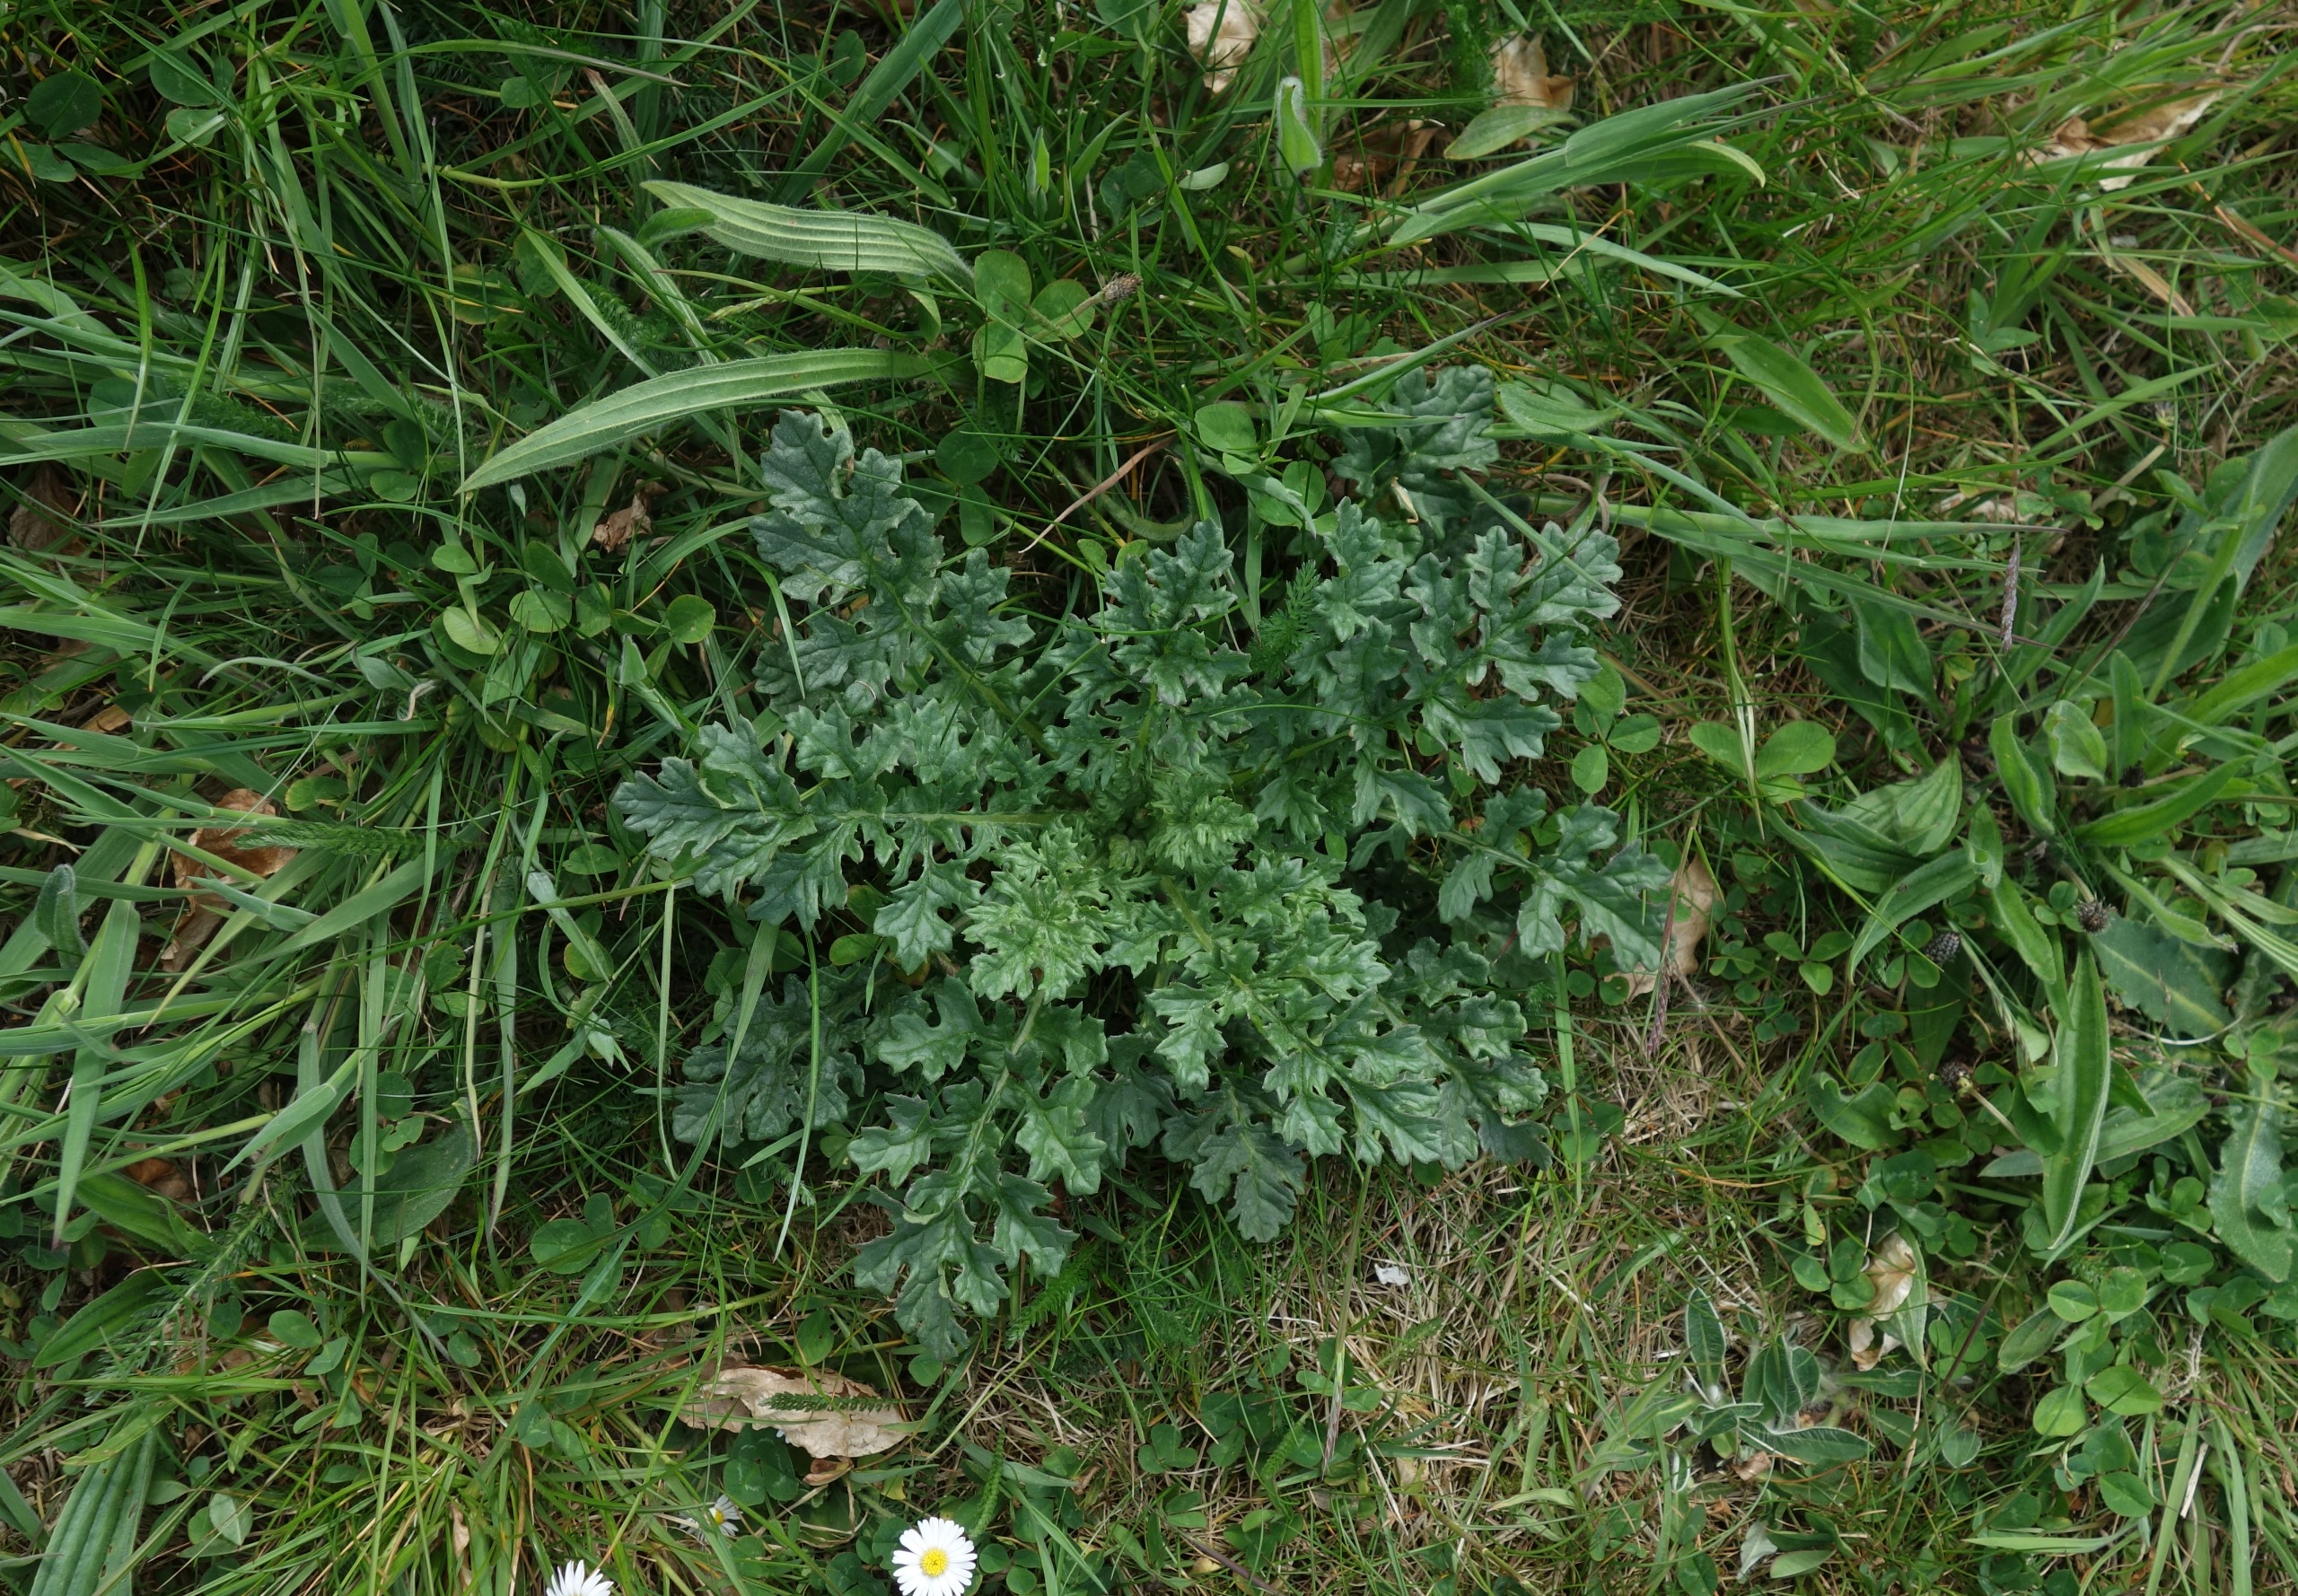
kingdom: Plantae
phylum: Tracheophyta
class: Magnoliopsida
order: Asterales
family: Asteraceae
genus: Jacobaea
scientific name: Jacobaea vulgaris
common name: Eng-brandbæger
